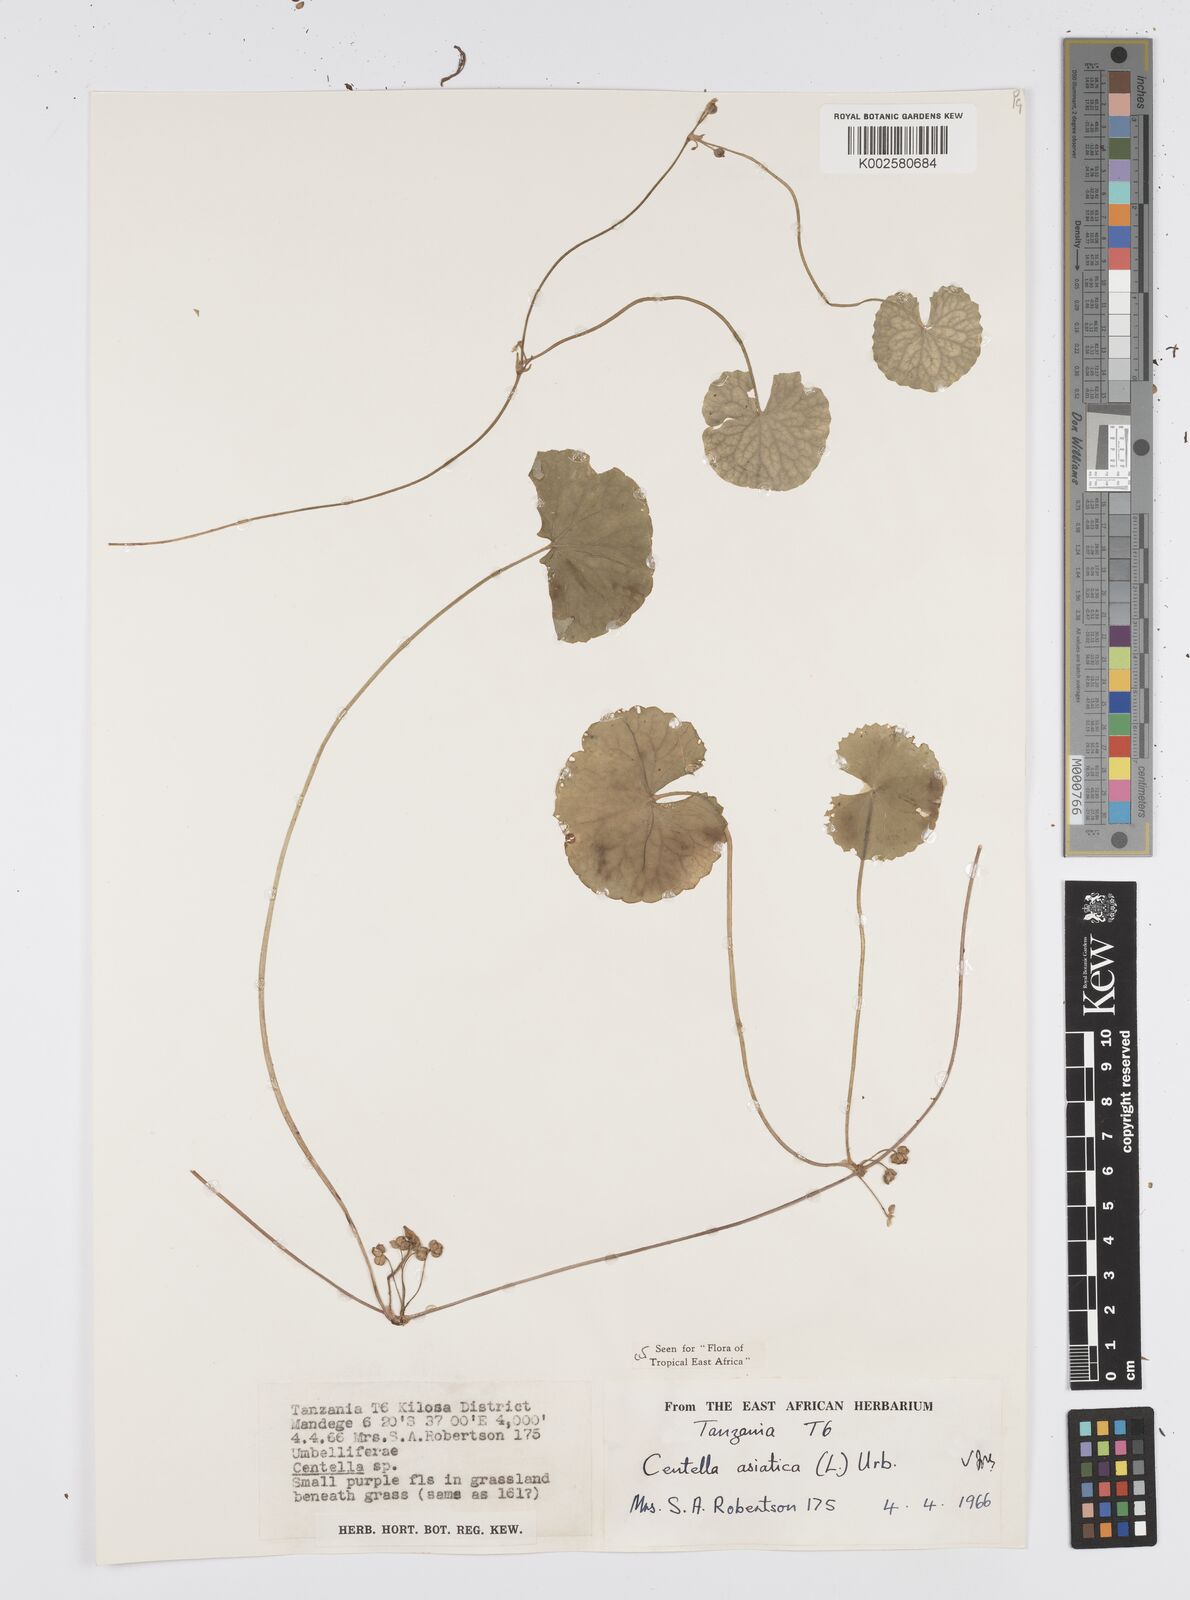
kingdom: Plantae
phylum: Tracheophyta
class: Magnoliopsida
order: Apiales
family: Apiaceae
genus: Centella
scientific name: Centella asiatica
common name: Spadeleaf
